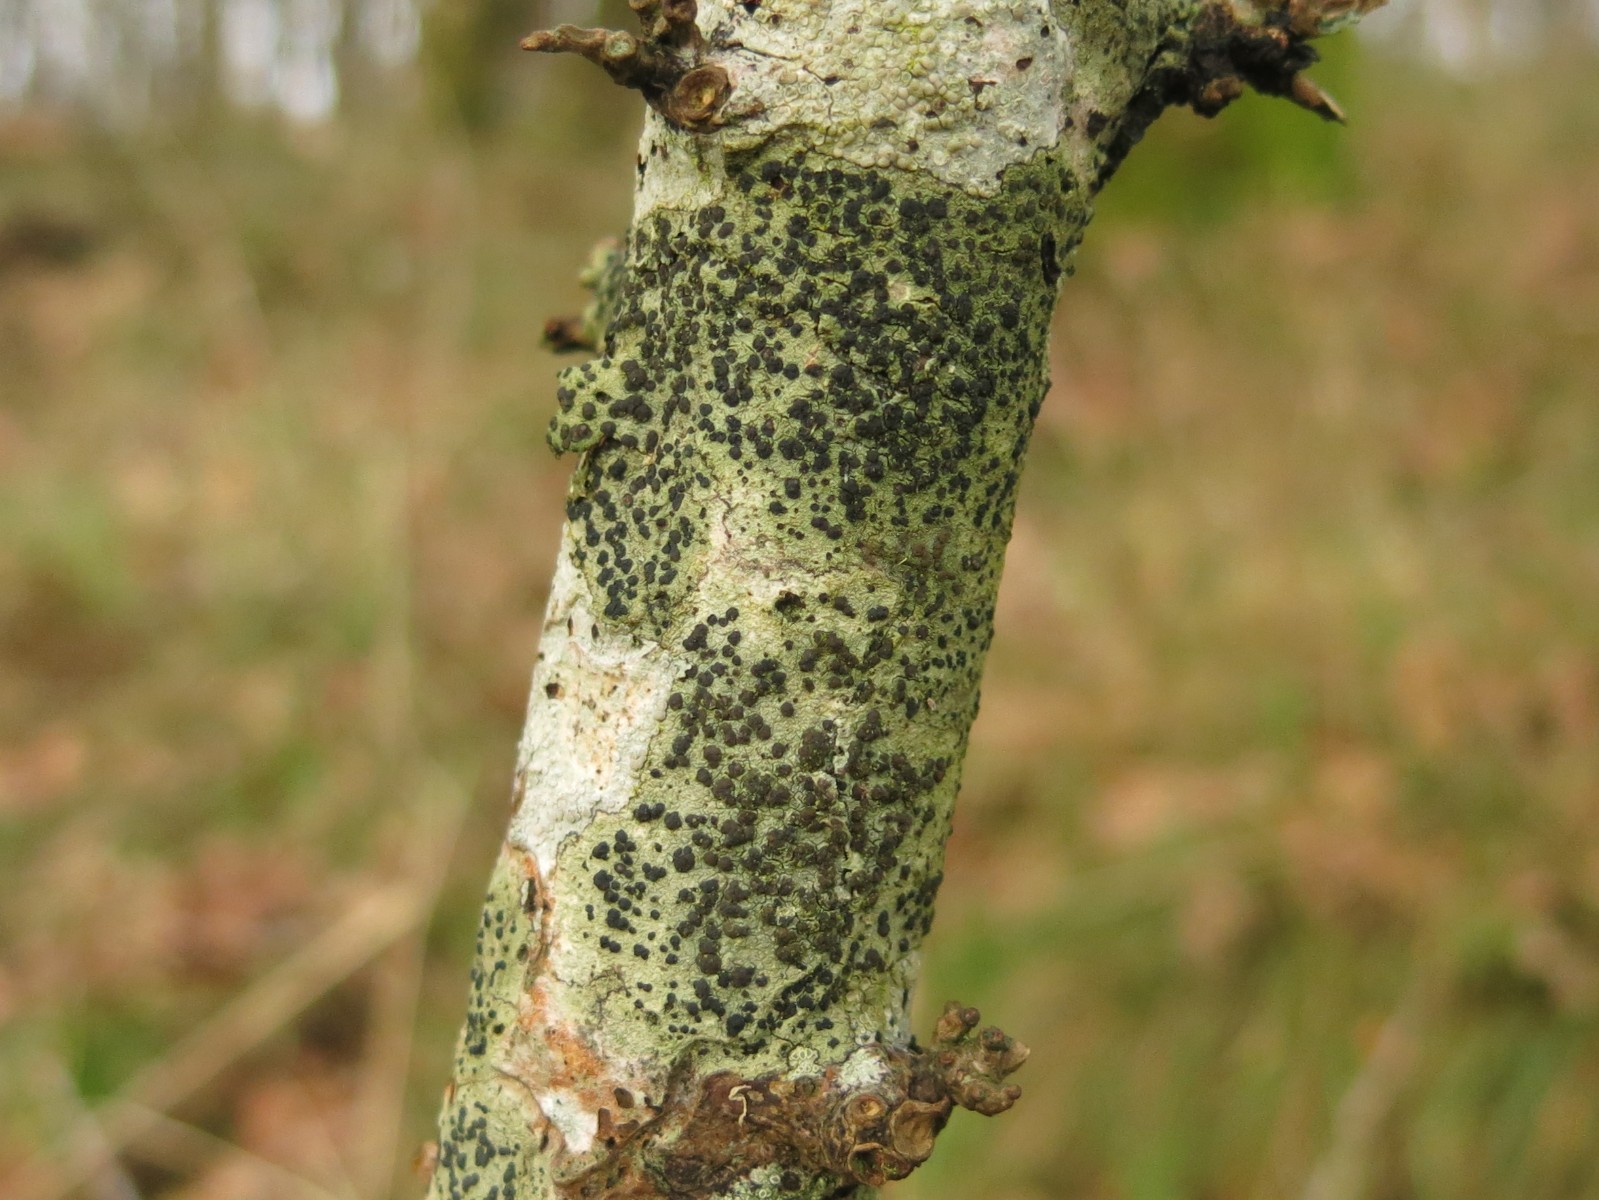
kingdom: Fungi
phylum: Ascomycota
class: Lecanoromycetes
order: Lecanorales
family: Lecanoraceae
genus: Lecidella
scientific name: Lecidella elaeochroma
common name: grågrøn skivelav
